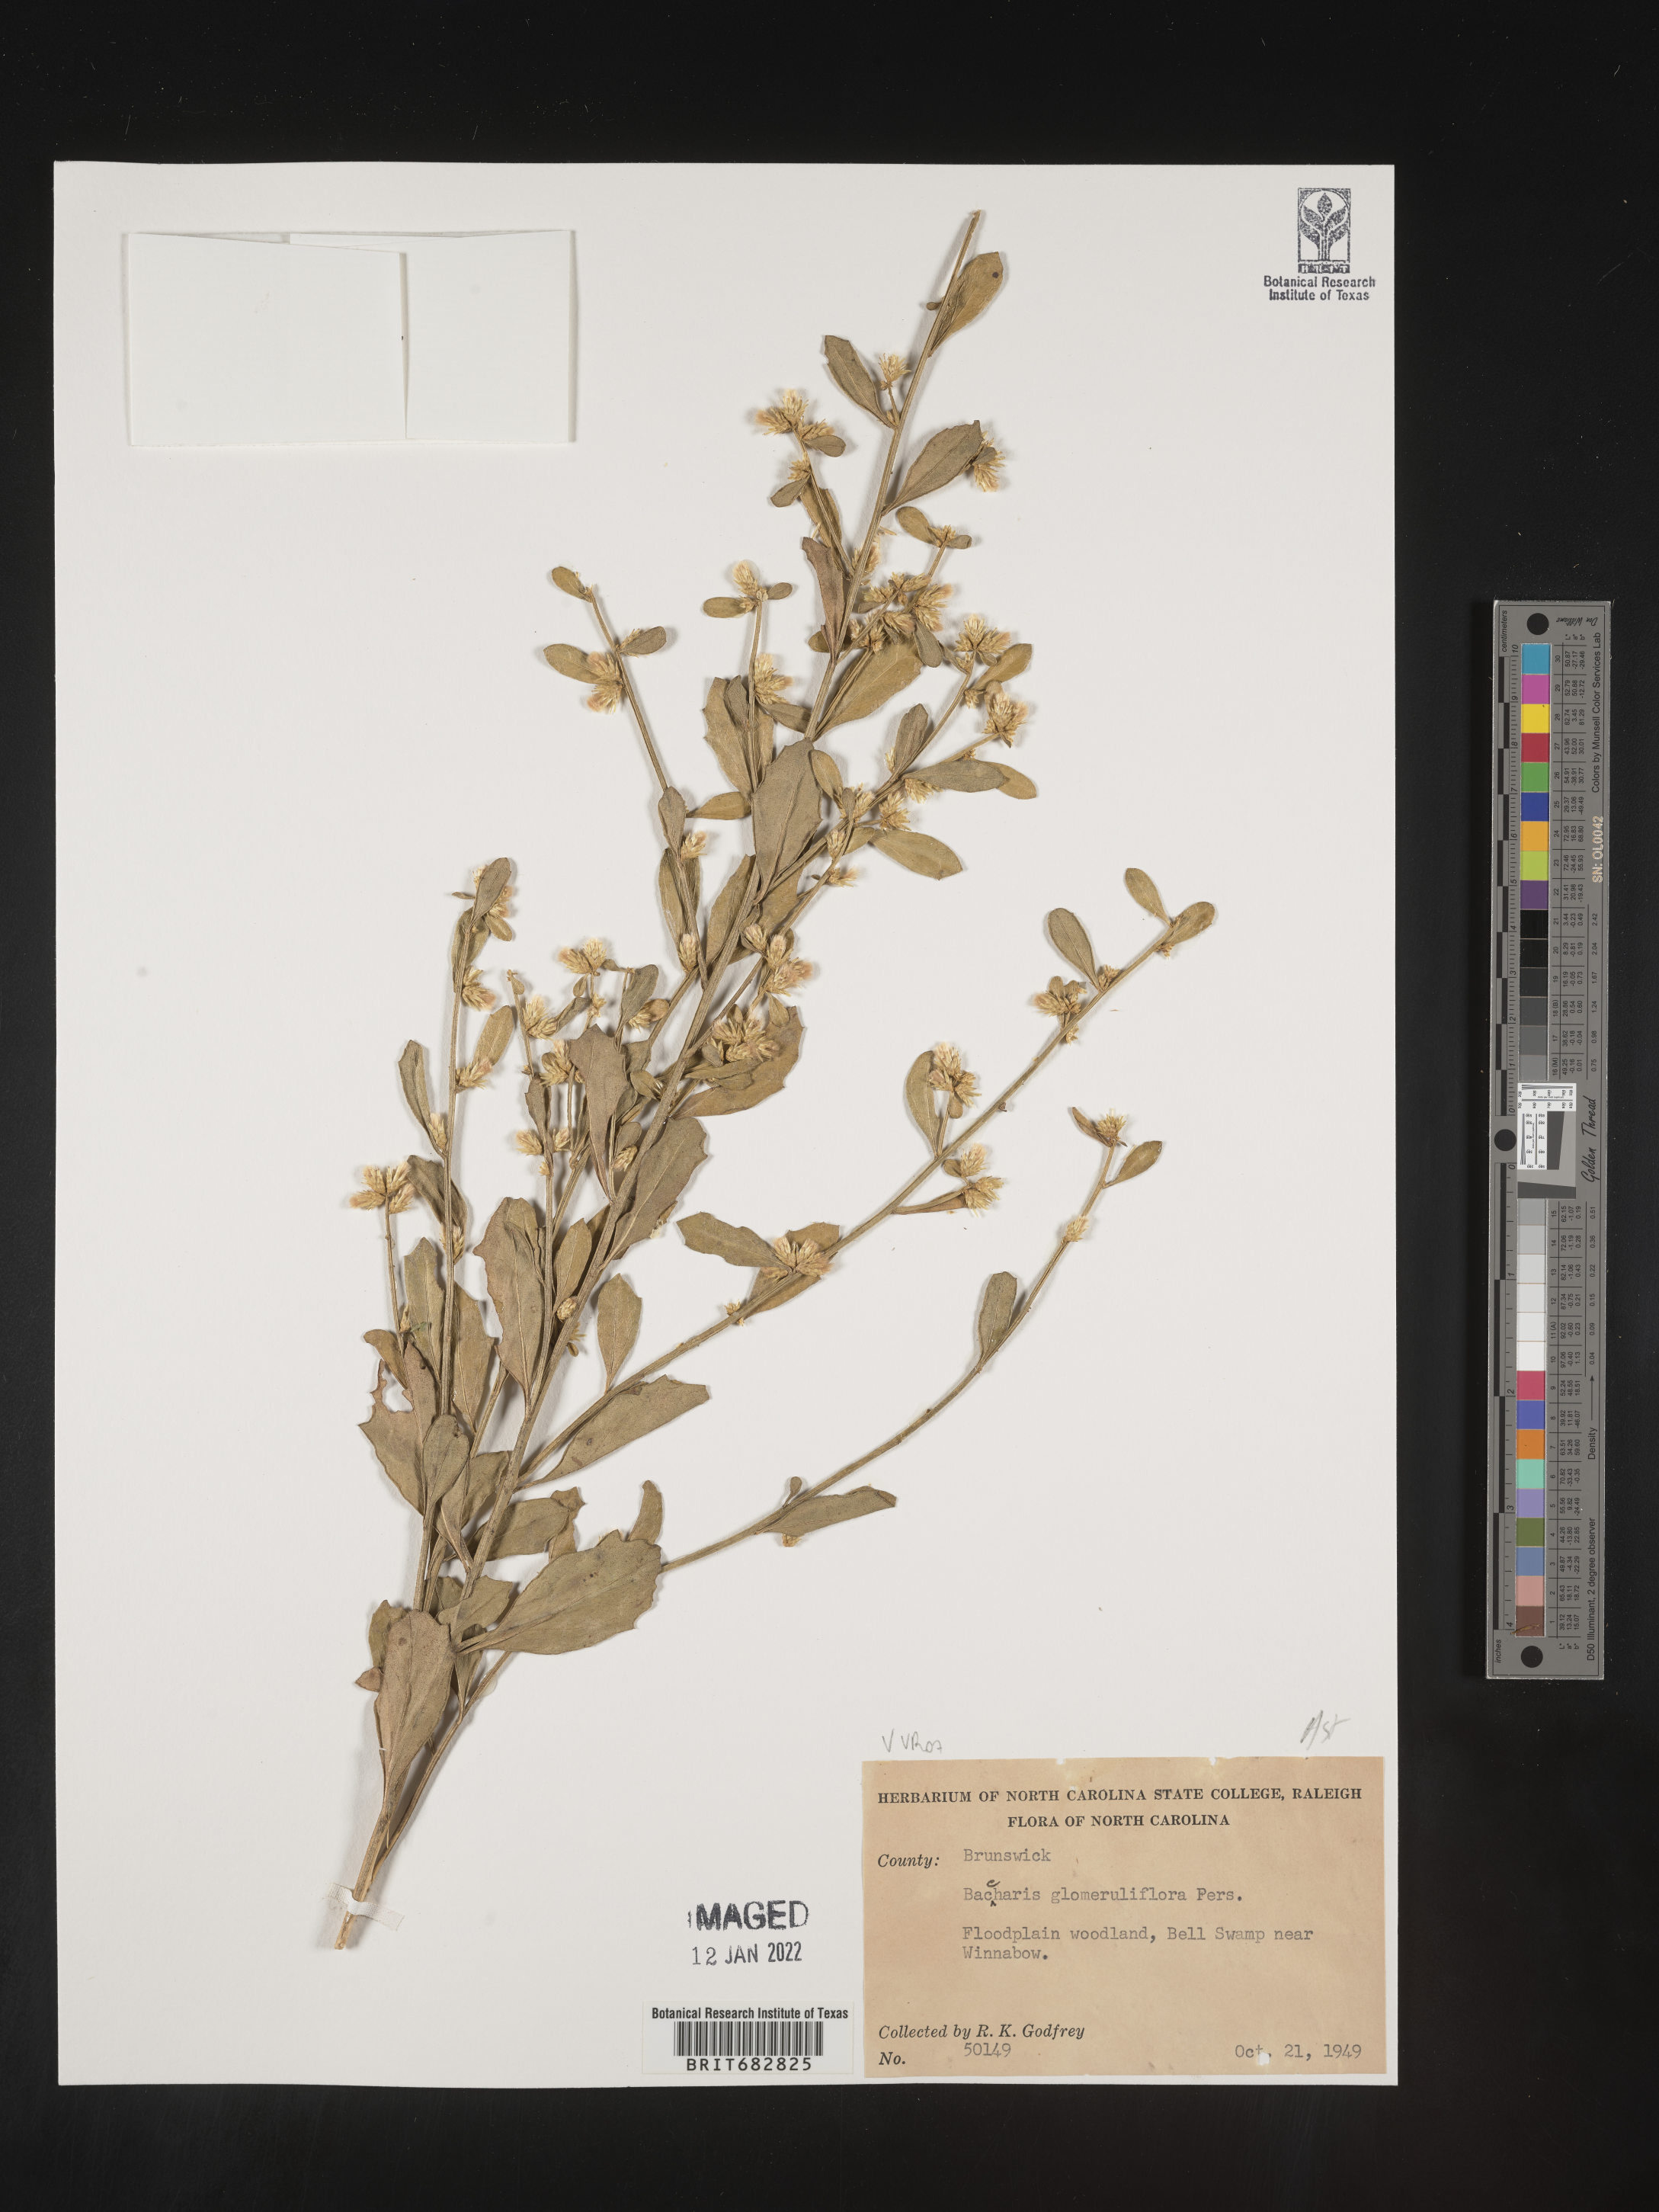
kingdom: Plantae
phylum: Tracheophyta
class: Magnoliopsida
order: Asterales
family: Asteraceae
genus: Baccharis
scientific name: Baccharis glutinosa
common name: Saltmarsh baccharis
